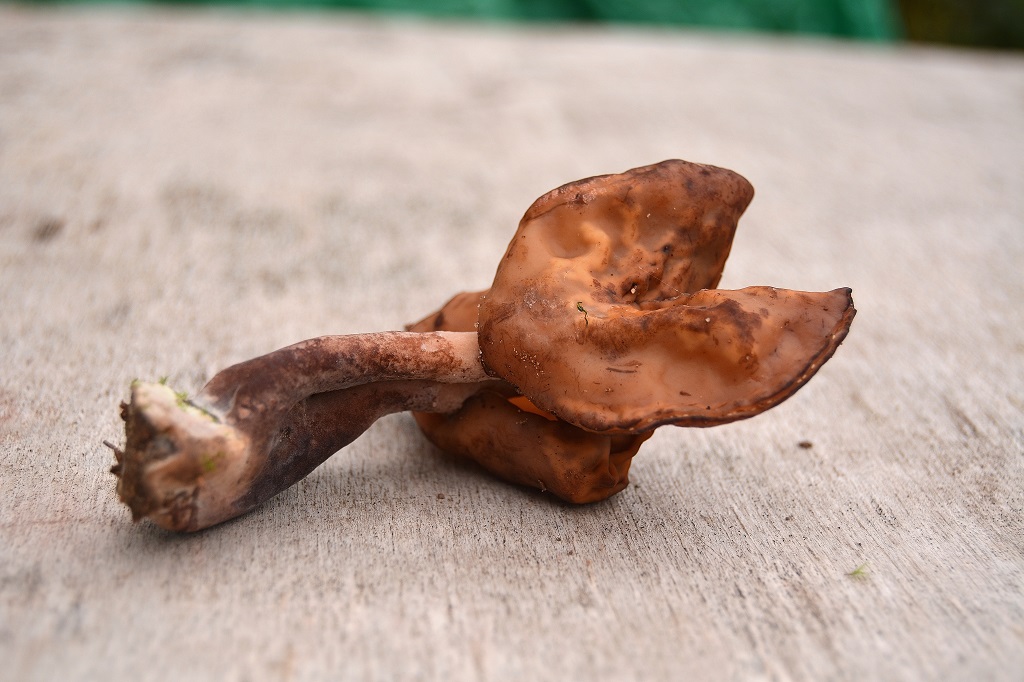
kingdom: Fungi
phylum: Ascomycota
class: Pezizomycetes
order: Pezizales
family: Discinaceae
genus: Gyromitra
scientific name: Gyromitra infula
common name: bispehue-stenmorkel
